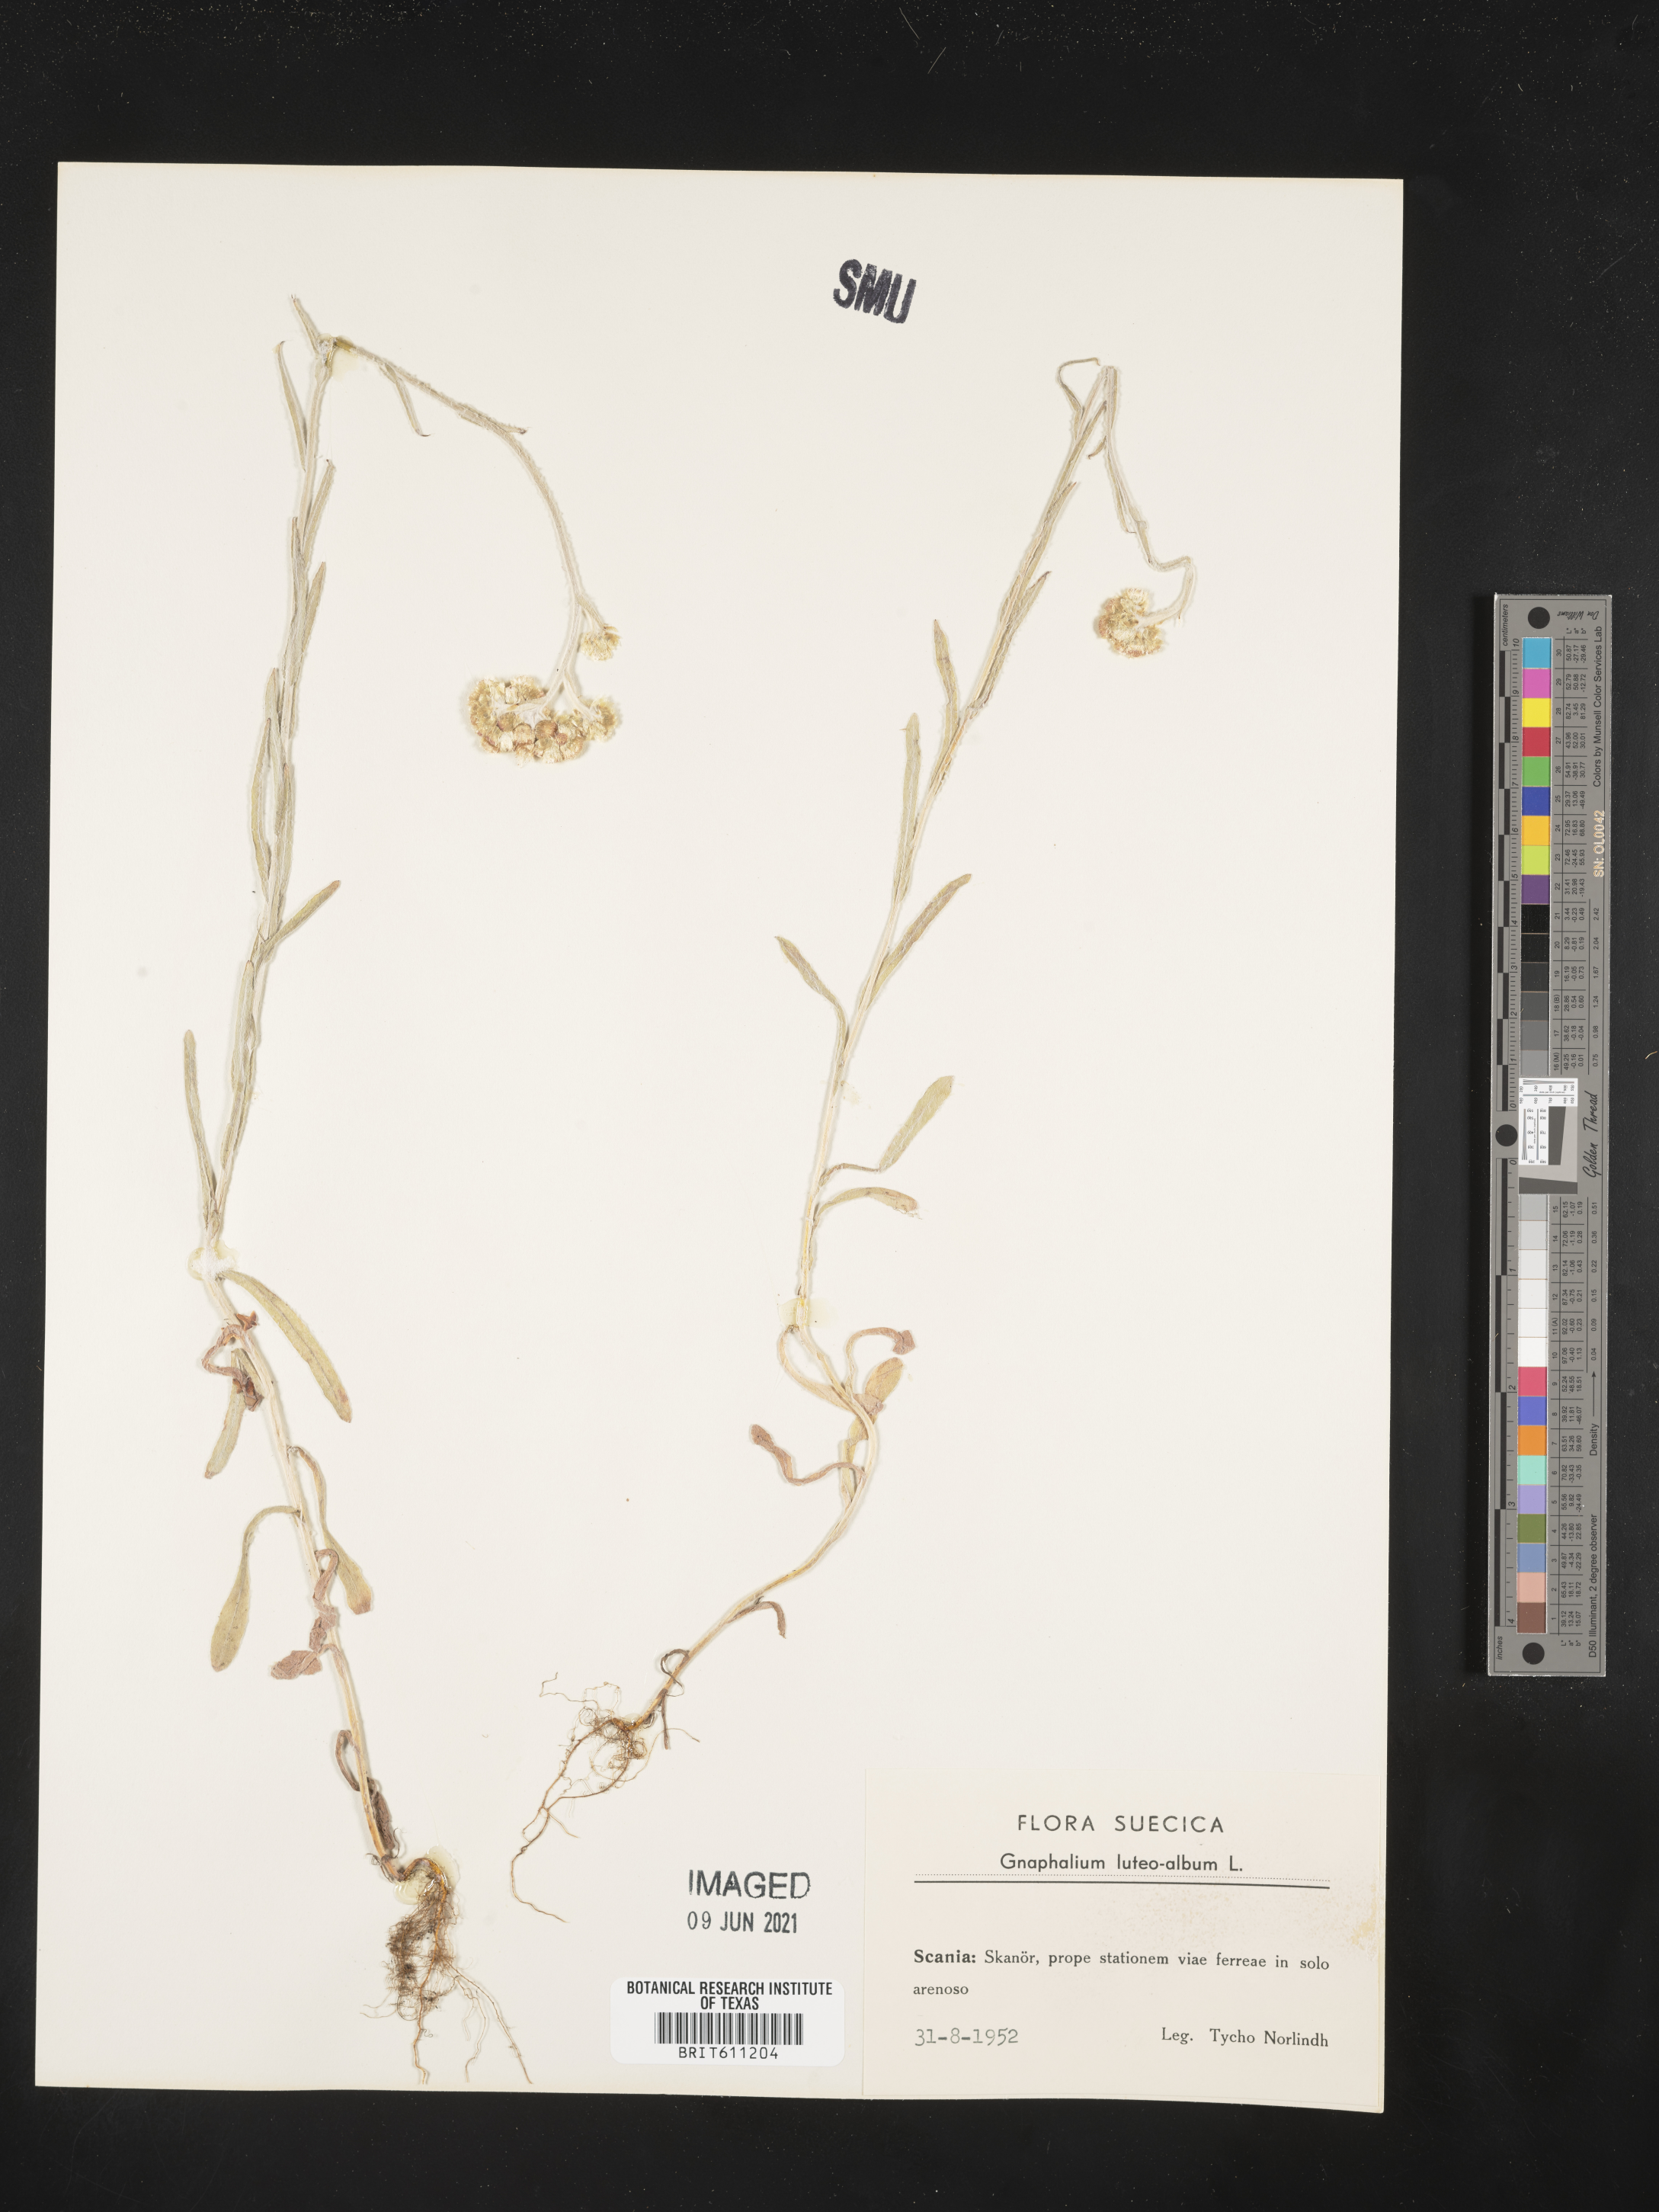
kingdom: Plantae
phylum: Tracheophyta
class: Magnoliopsida
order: Asterales
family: Asteraceae
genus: Helichrysum
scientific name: Helichrysum luteoalbum
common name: Daisy
